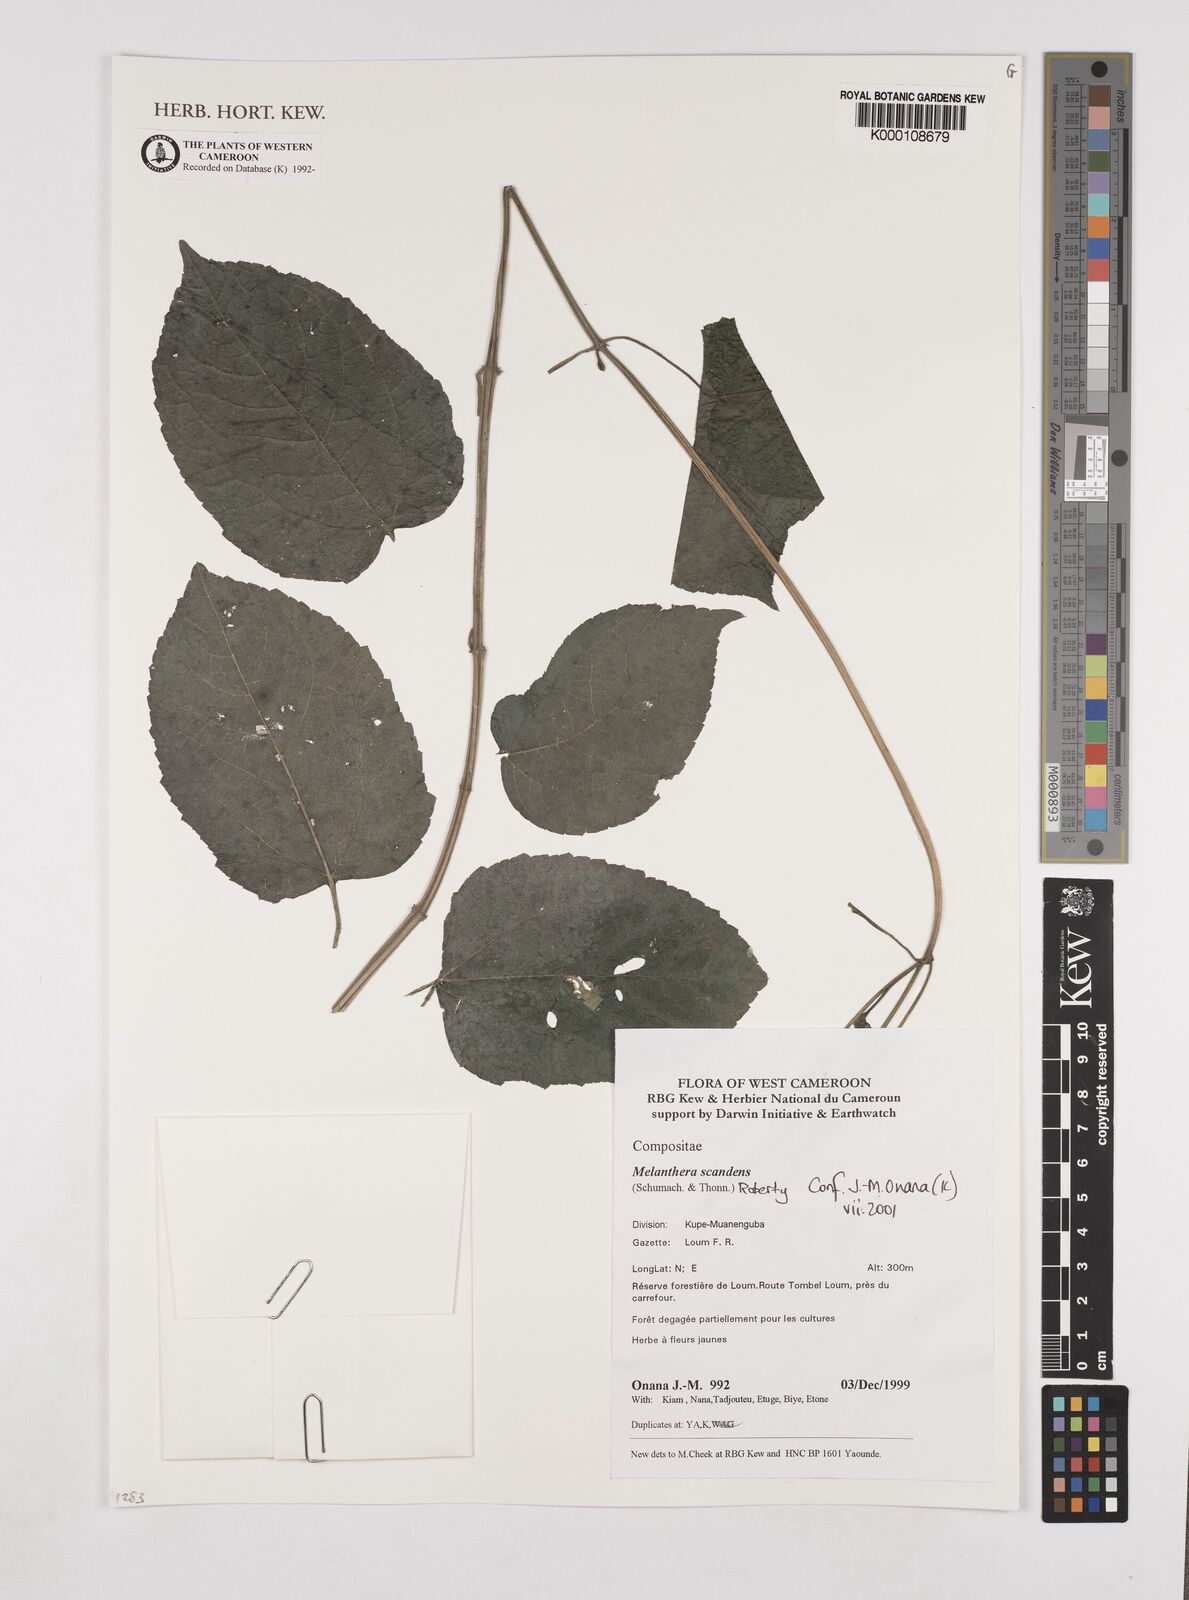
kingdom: Plantae
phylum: Tracheophyta
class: Magnoliopsida
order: Asterales
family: Asteraceae
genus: Melanthera
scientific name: Melanthera
